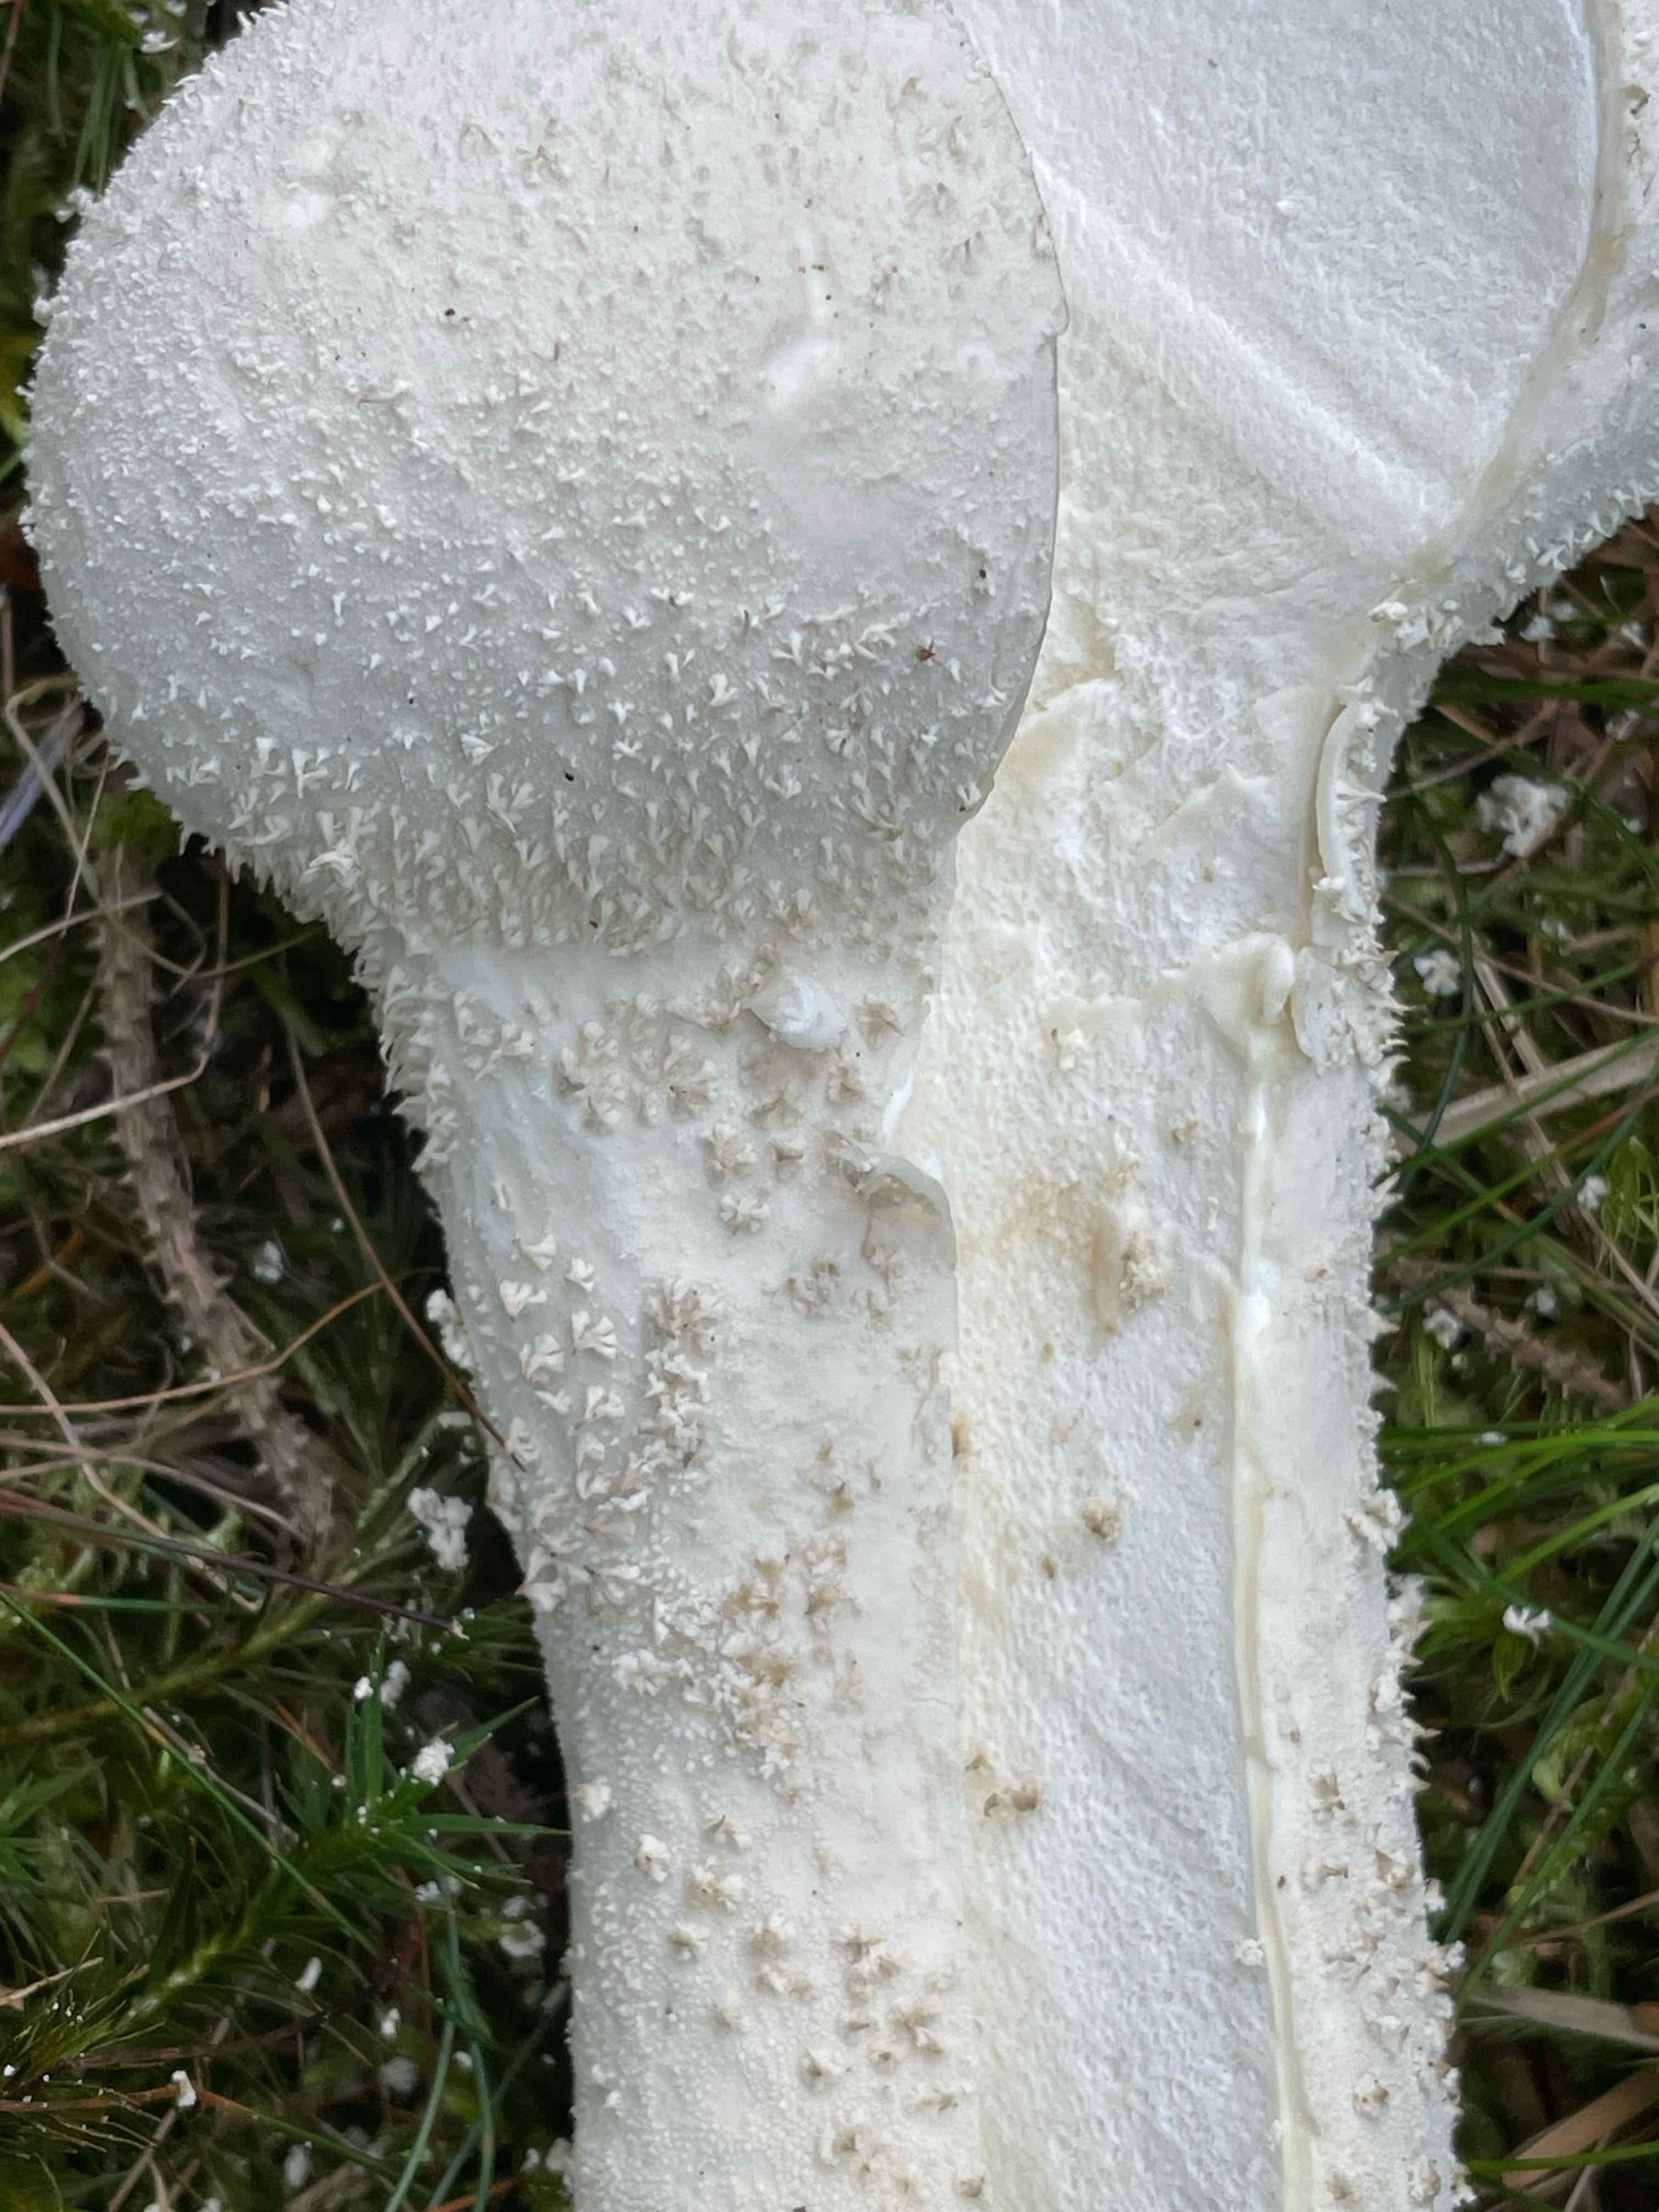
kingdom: Fungi
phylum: Basidiomycota
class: Agaricomycetes
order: Agaricales
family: Lycoperdaceae
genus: Lycoperdon
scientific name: Lycoperdon excipuliforme
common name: højstokket støvbold
